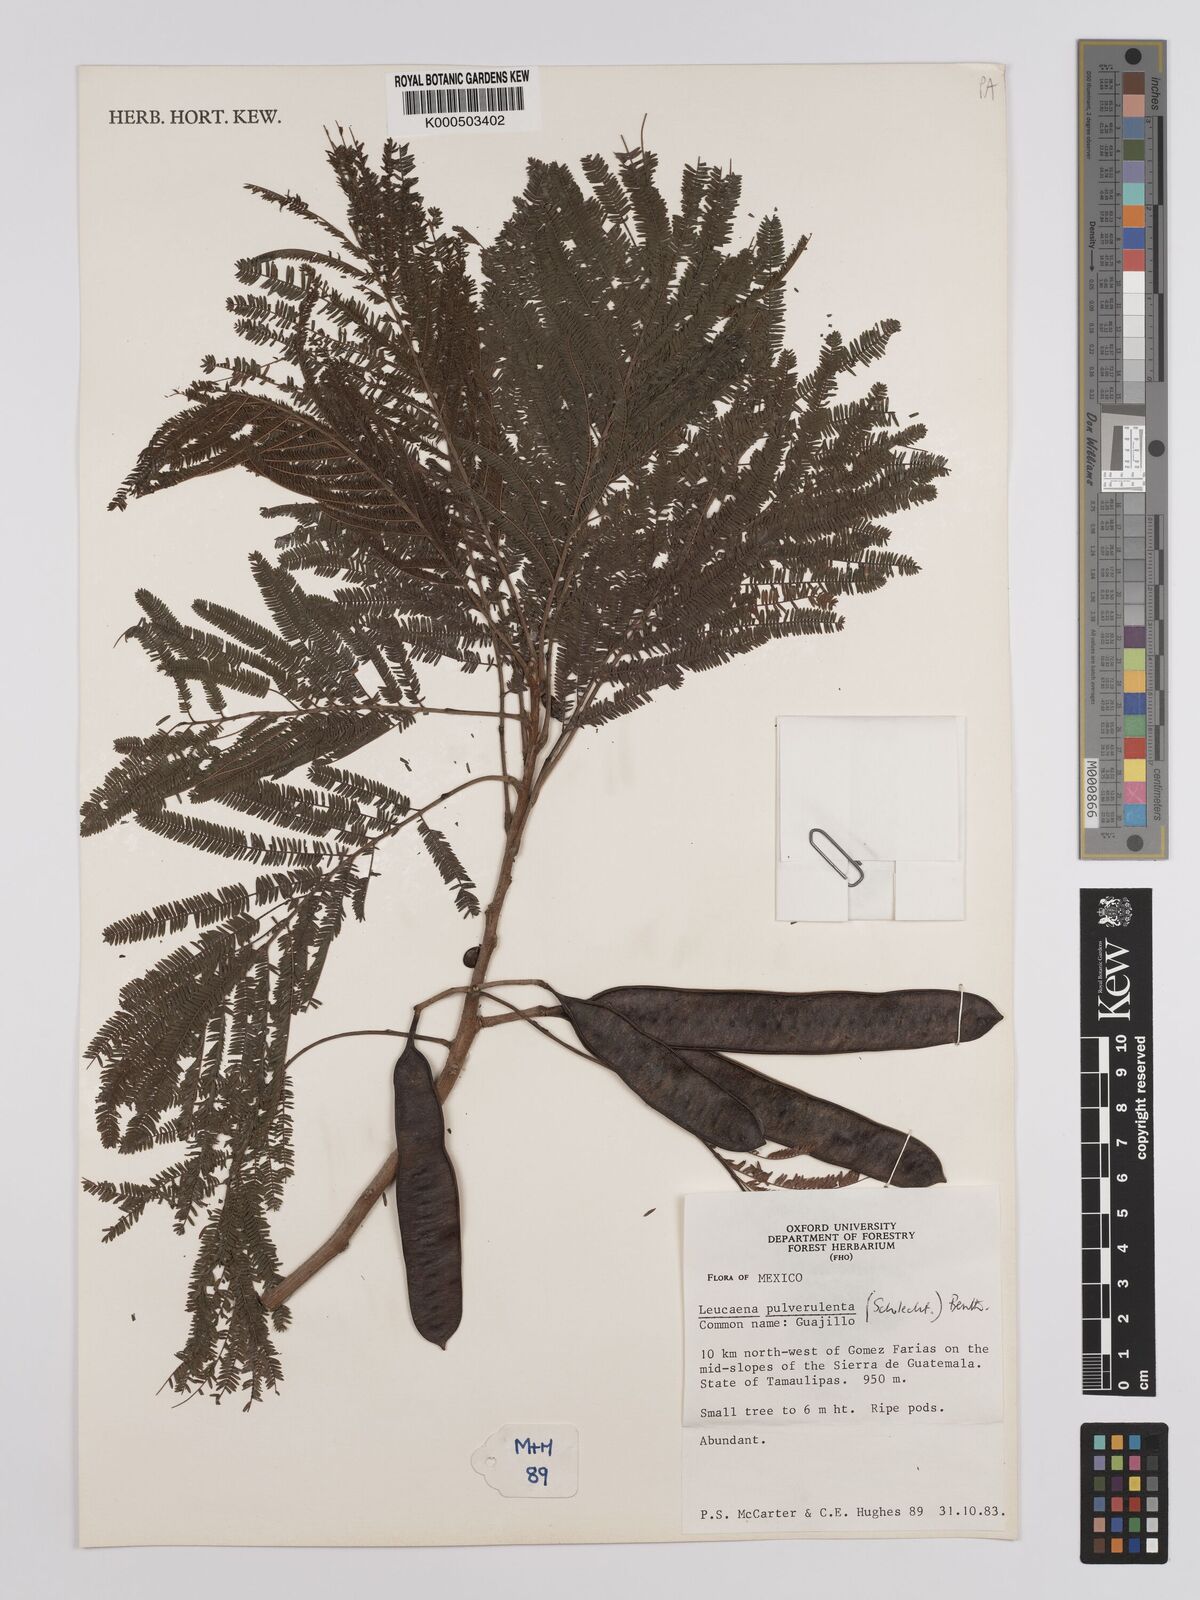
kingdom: Plantae
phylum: Tracheophyta
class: Magnoliopsida
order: Fabales
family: Fabaceae
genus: Leucaena
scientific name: Leucaena pulverulenta
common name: Great leadtree
